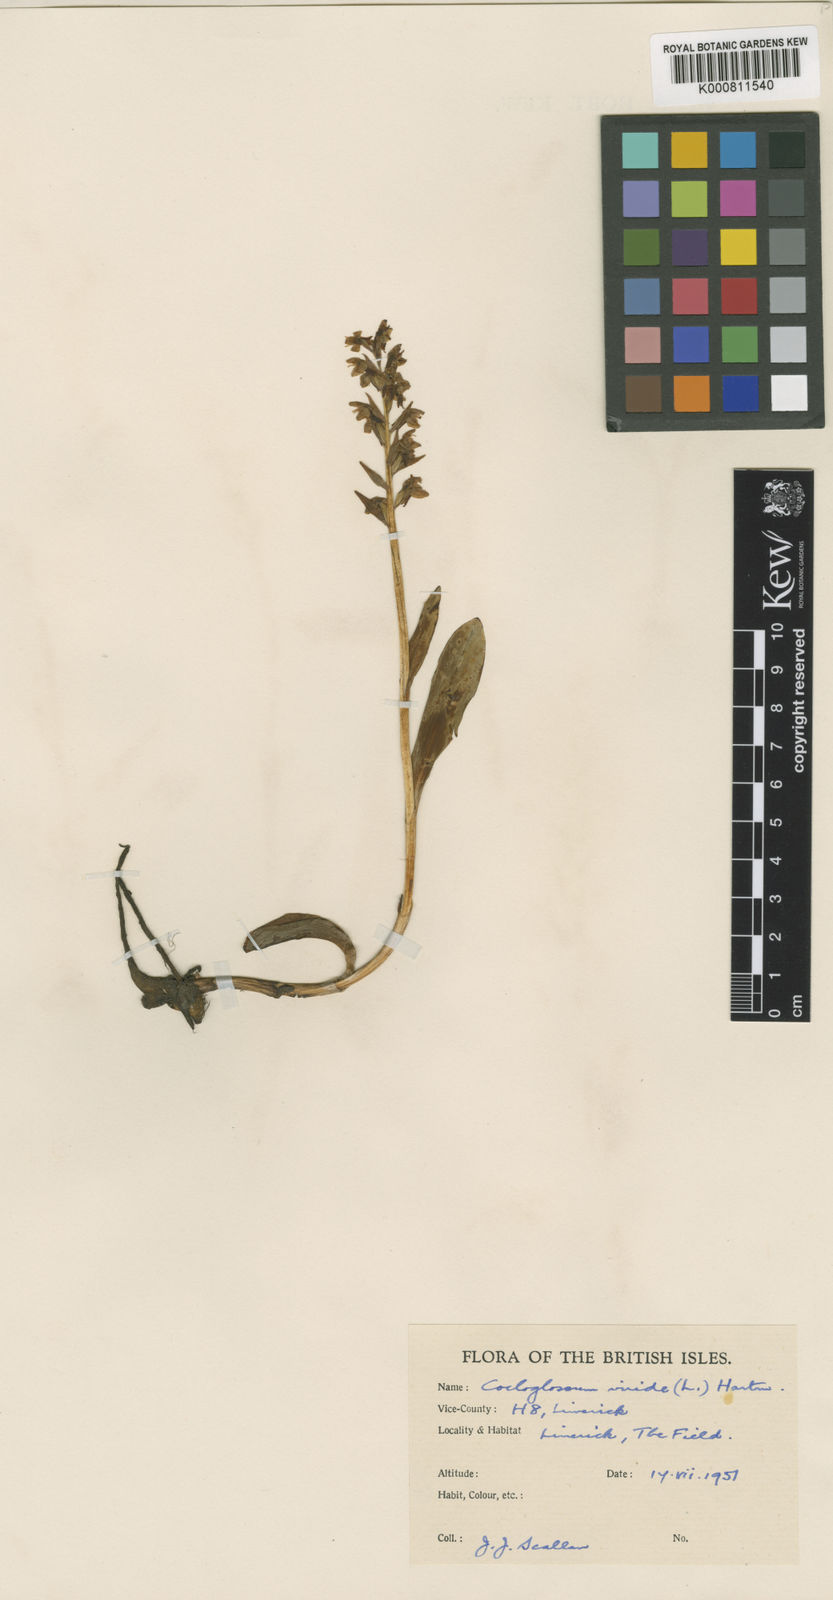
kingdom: Plantae
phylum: Tracheophyta
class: Liliopsida
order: Asparagales
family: Orchidaceae
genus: Dactylorhiza
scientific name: Dactylorhiza viridis
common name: Longbract frog orchid
